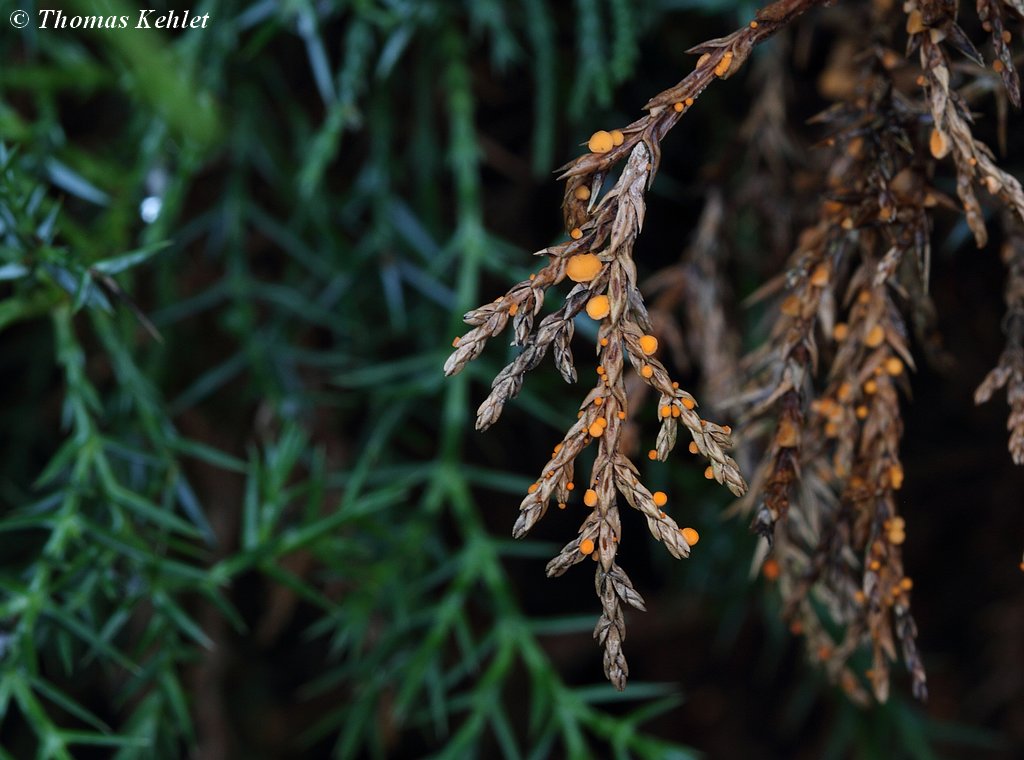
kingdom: Fungi
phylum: Ascomycota
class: Pezizomycetes
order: Pezizales
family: Sarcoscyphaceae
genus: Pithya
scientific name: Pithya cupressina
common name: lille dukatbæger
